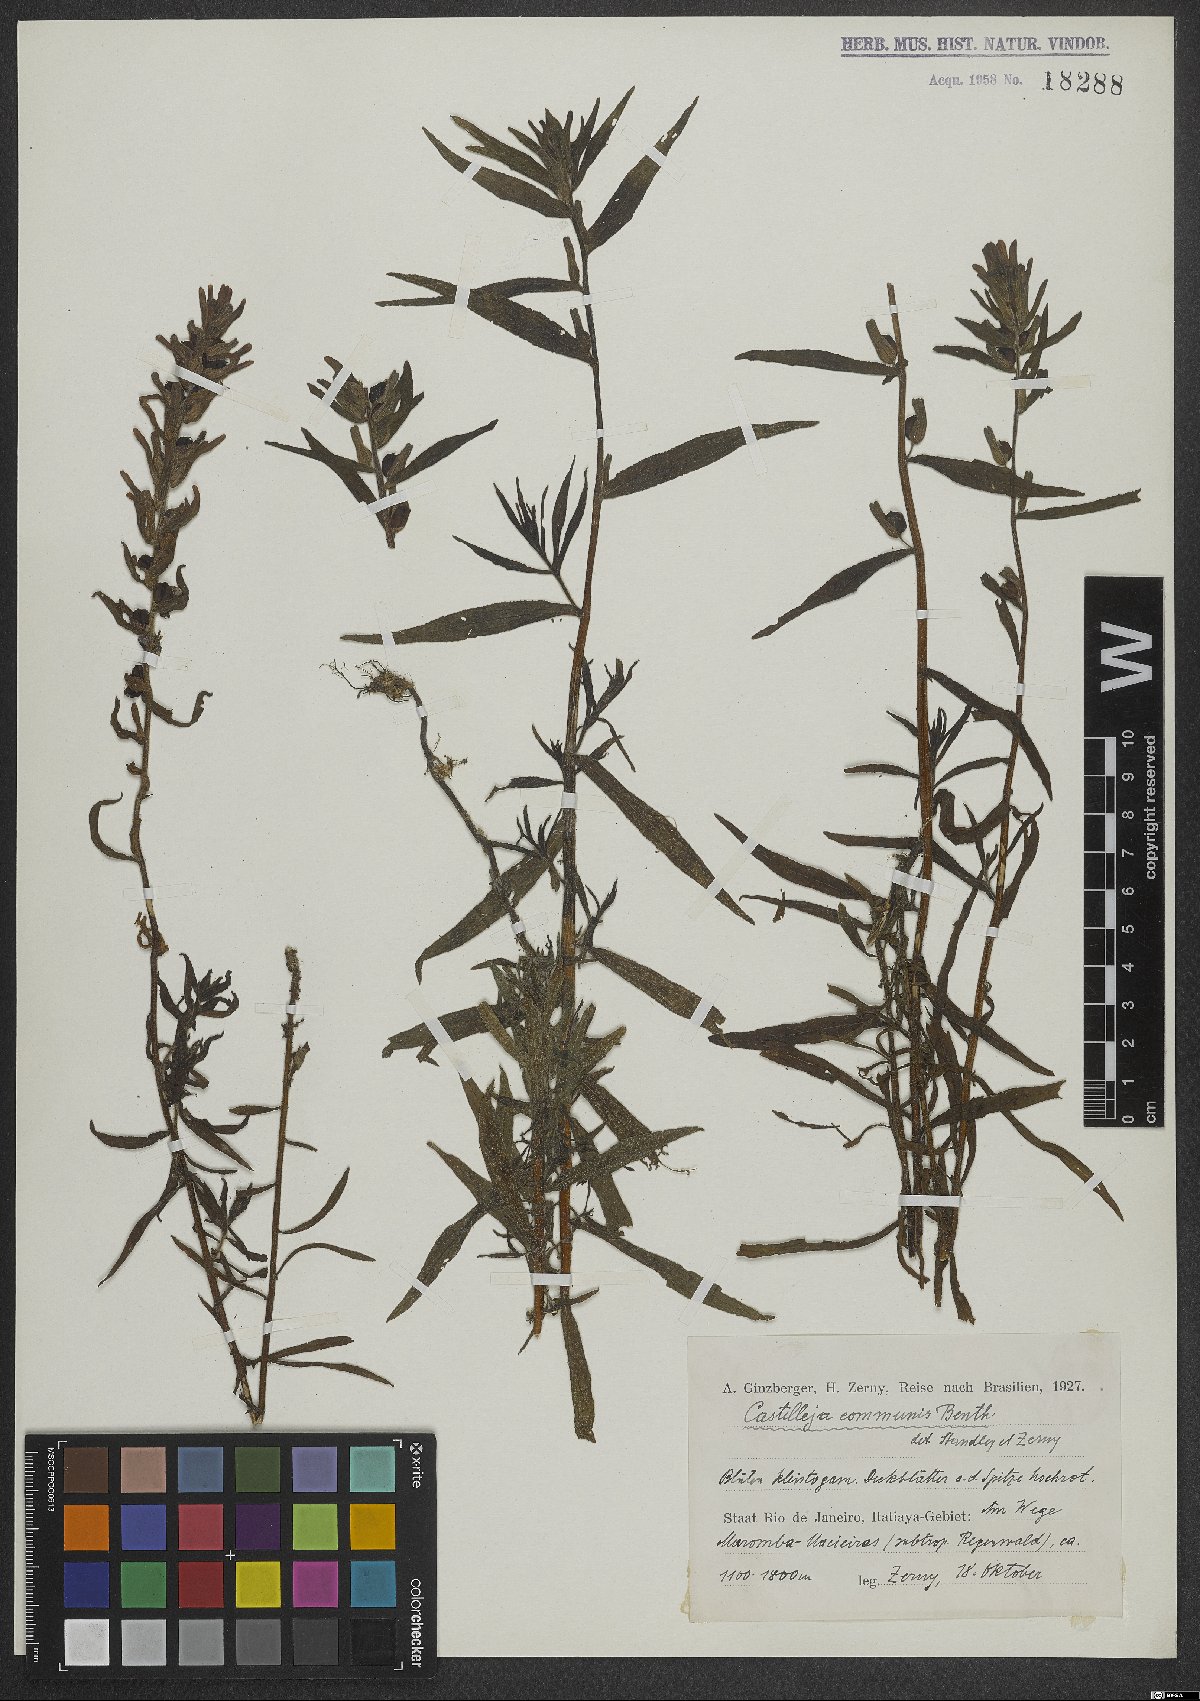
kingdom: Plantae
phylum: Tracheophyta
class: Magnoliopsida
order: Lamiales
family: Orobanchaceae
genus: Castilleja
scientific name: Castilleja arvensis
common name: Indian paintbrush
